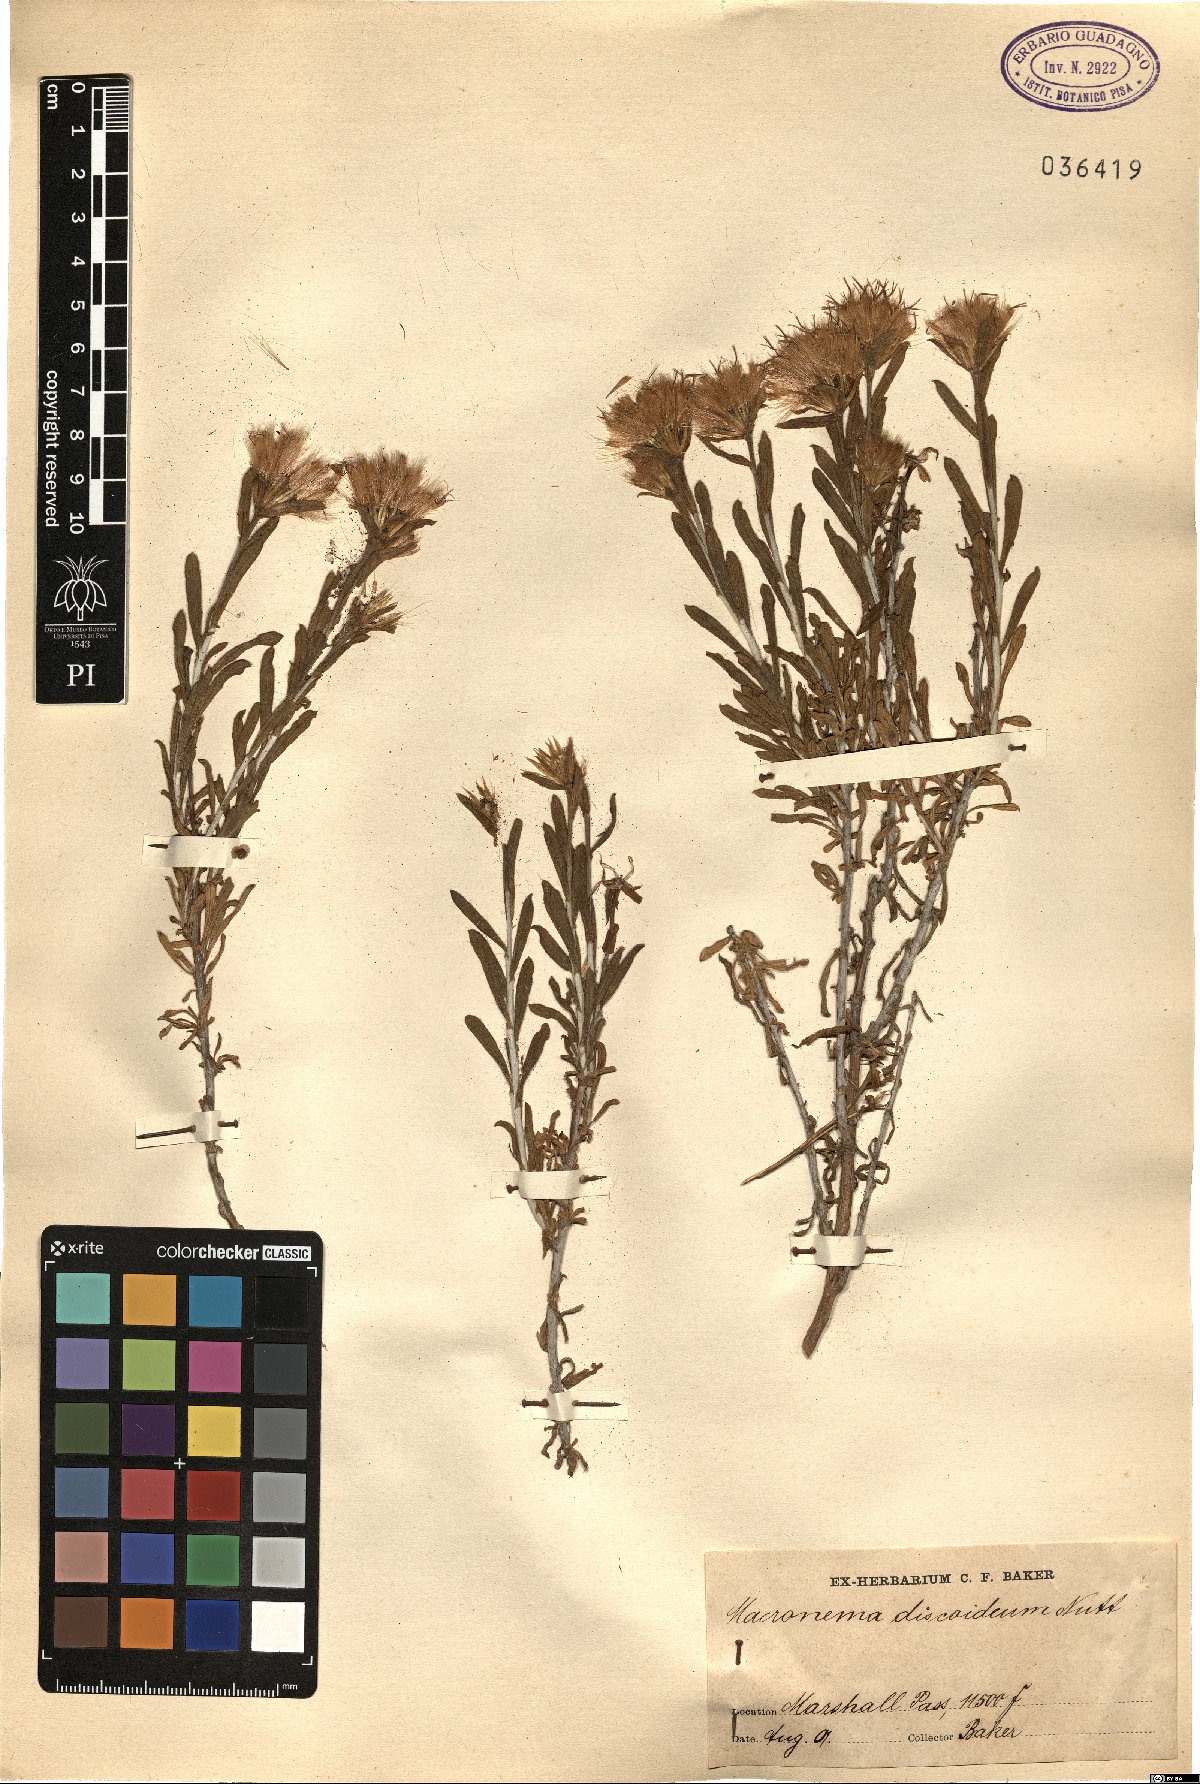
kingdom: Plantae
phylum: Tracheophyta
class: Magnoliopsida
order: Asterales
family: Asteraceae
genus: Ericameria
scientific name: Ericameria discoidea
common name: Sharp-scale goldenweed
